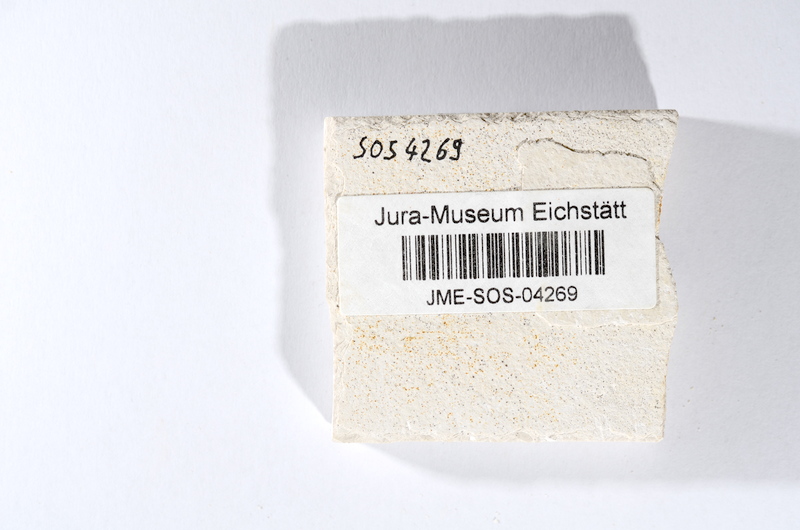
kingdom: Animalia
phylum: Chordata
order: Salmoniformes
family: Orthogonikleithridae
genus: Orthogonikleithrus
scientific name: Orthogonikleithrus hoelli
